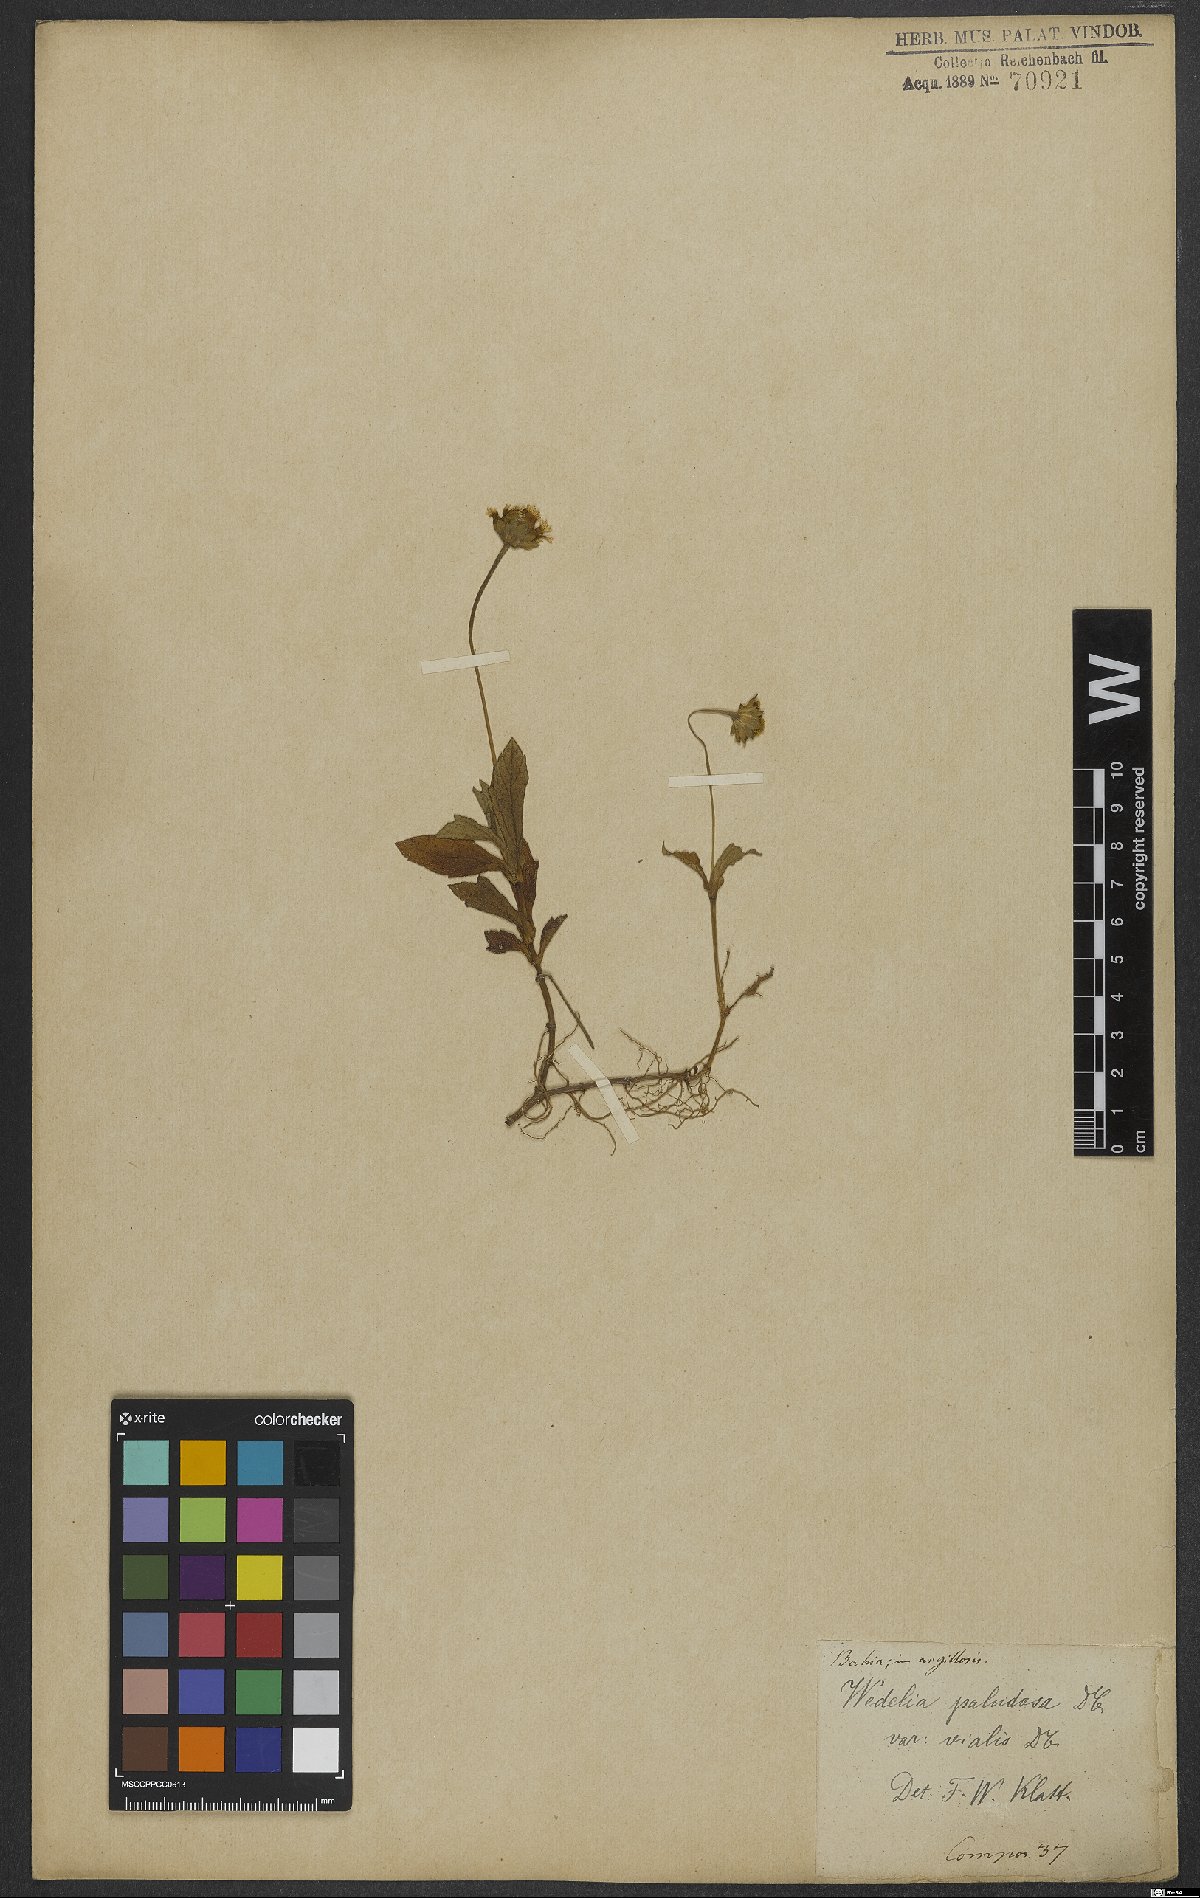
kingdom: Plantae
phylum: Tracheophyta
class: Magnoliopsida
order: Asterales
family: Asteraceae
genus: Sphagneticola
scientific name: Sphagneticola trilobata
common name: Bay biscayne creeping-oxeye
